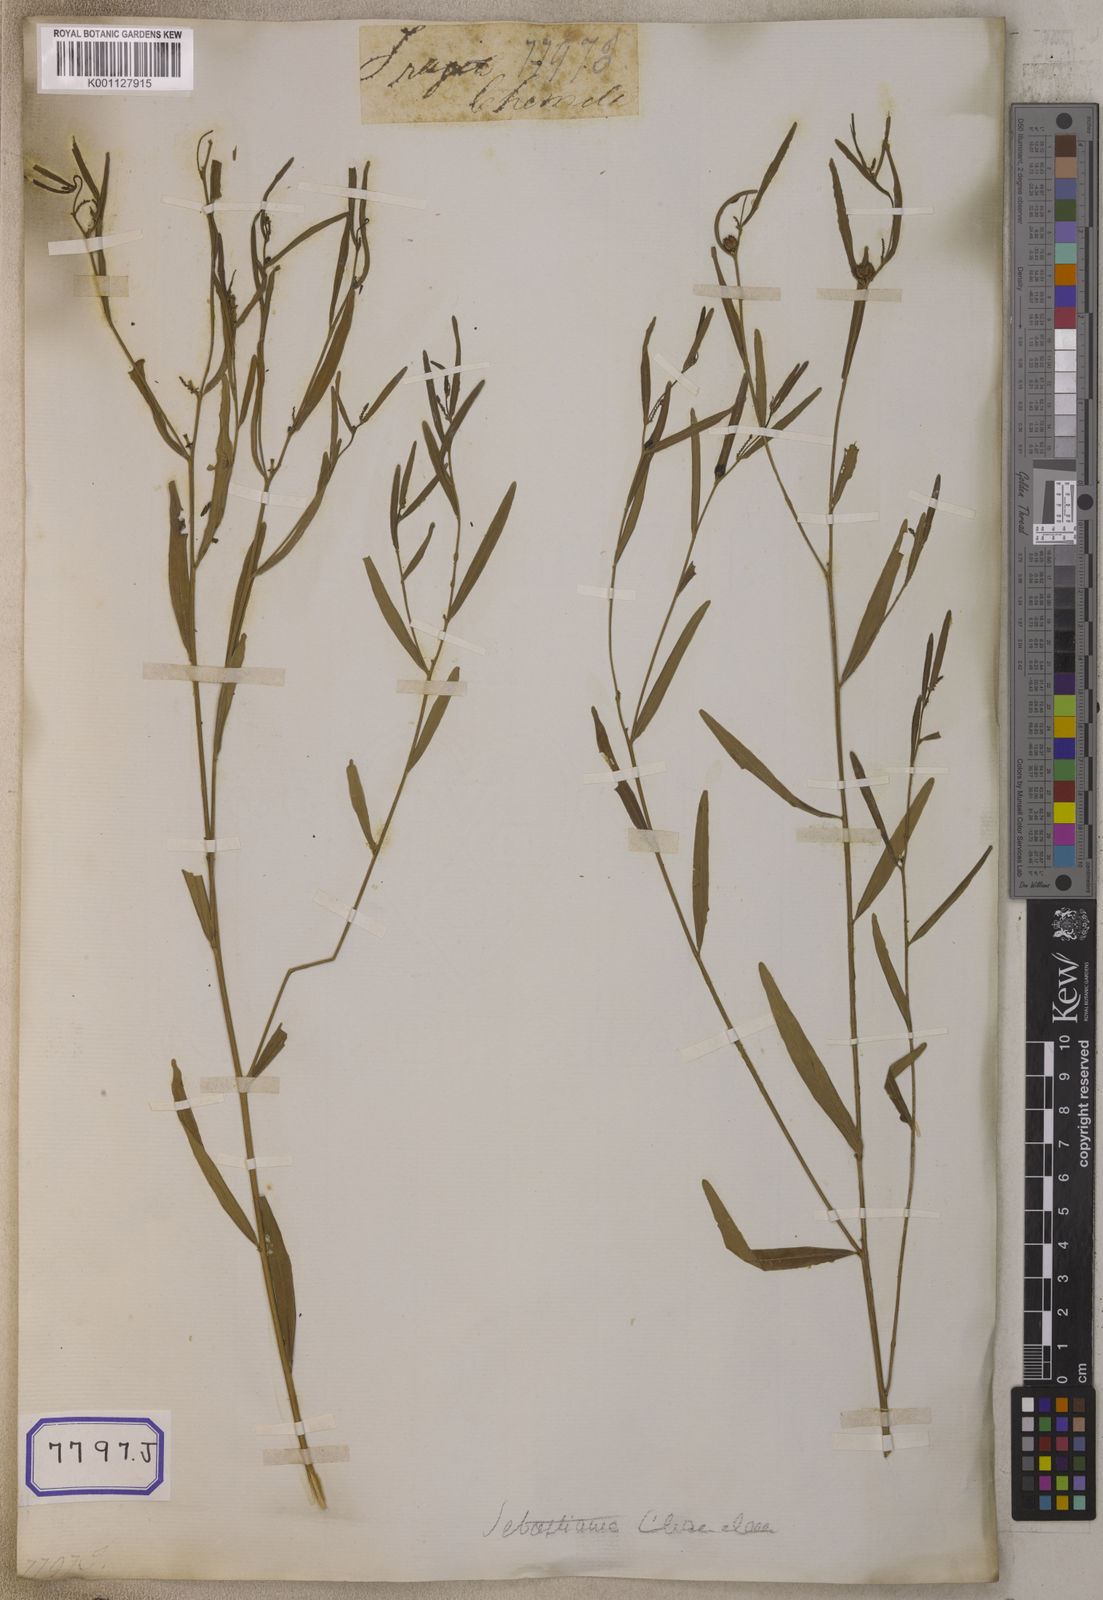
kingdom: Plantae
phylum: Tracheophyta
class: Magnoliopsida
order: Malpighiales
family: Euphorbiaceae
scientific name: Euphorbiaceae
